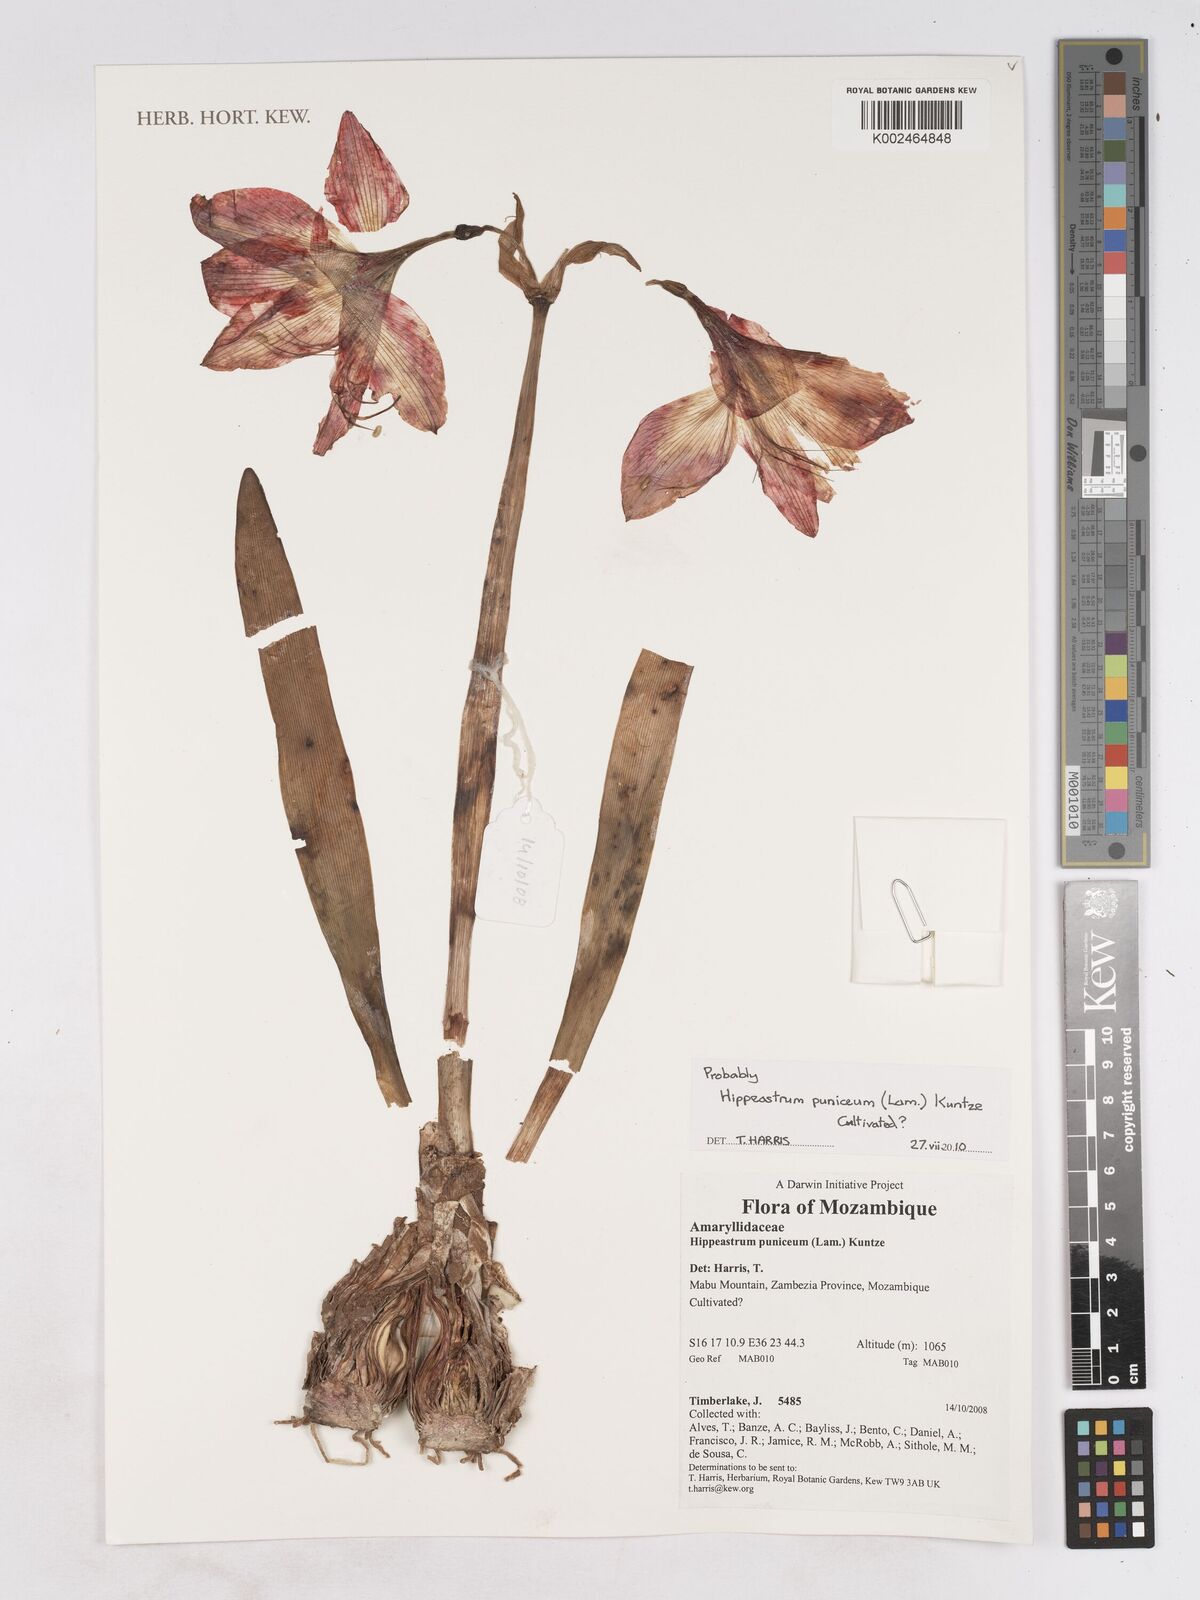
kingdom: Plantae
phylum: Tracheophyta
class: Liliopsida
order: Asparagales
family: Amaryllidaceae
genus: Hippeastrum
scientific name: Hippeastrum puniceum
